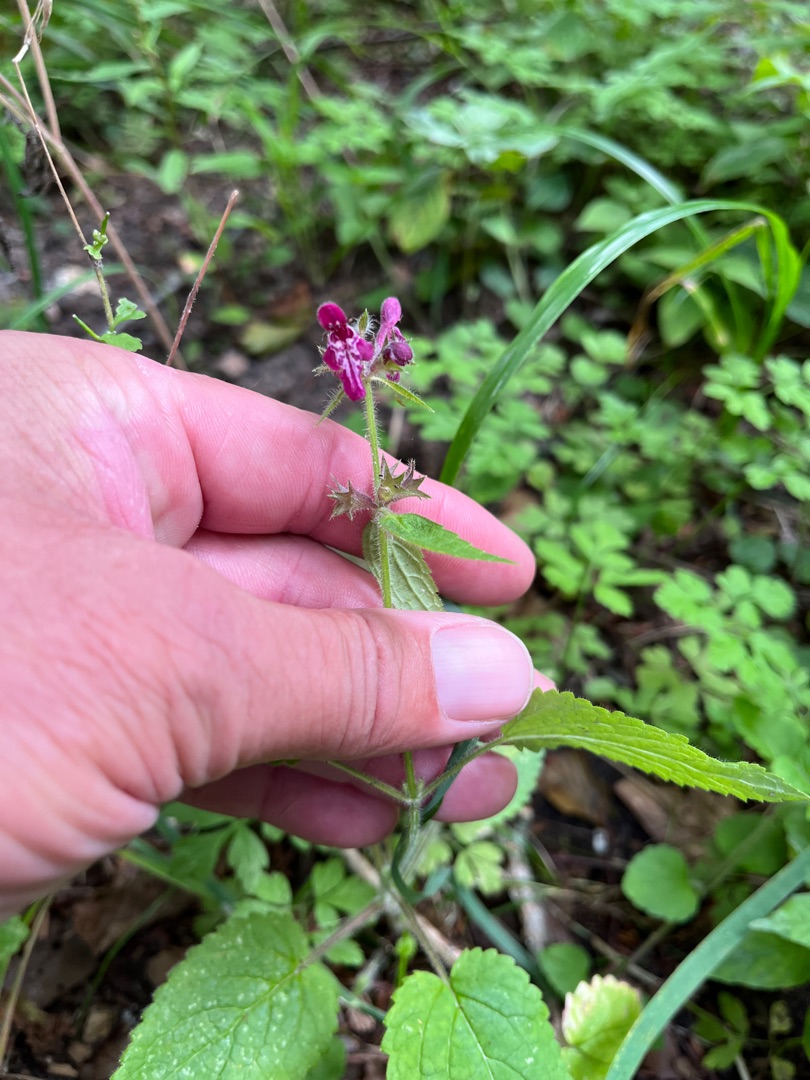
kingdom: Plantae
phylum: Tracheophyta
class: Magnoliopsida
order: Lamiales
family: Lamiaceae
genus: Stachys
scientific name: Stachys sylvatica
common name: Skov-galtetand
